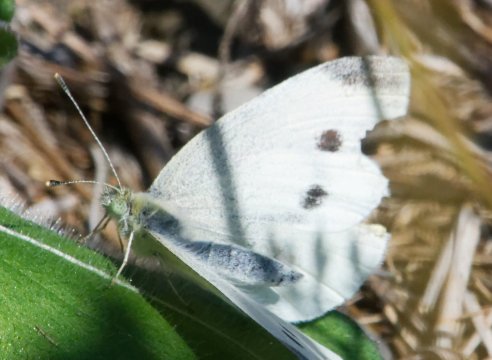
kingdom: Animalia
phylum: Arthropoda
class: Insecta
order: Lepidoptera
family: Pieridae
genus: Pieris
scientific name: Pieris rapae
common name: Cabbage White
